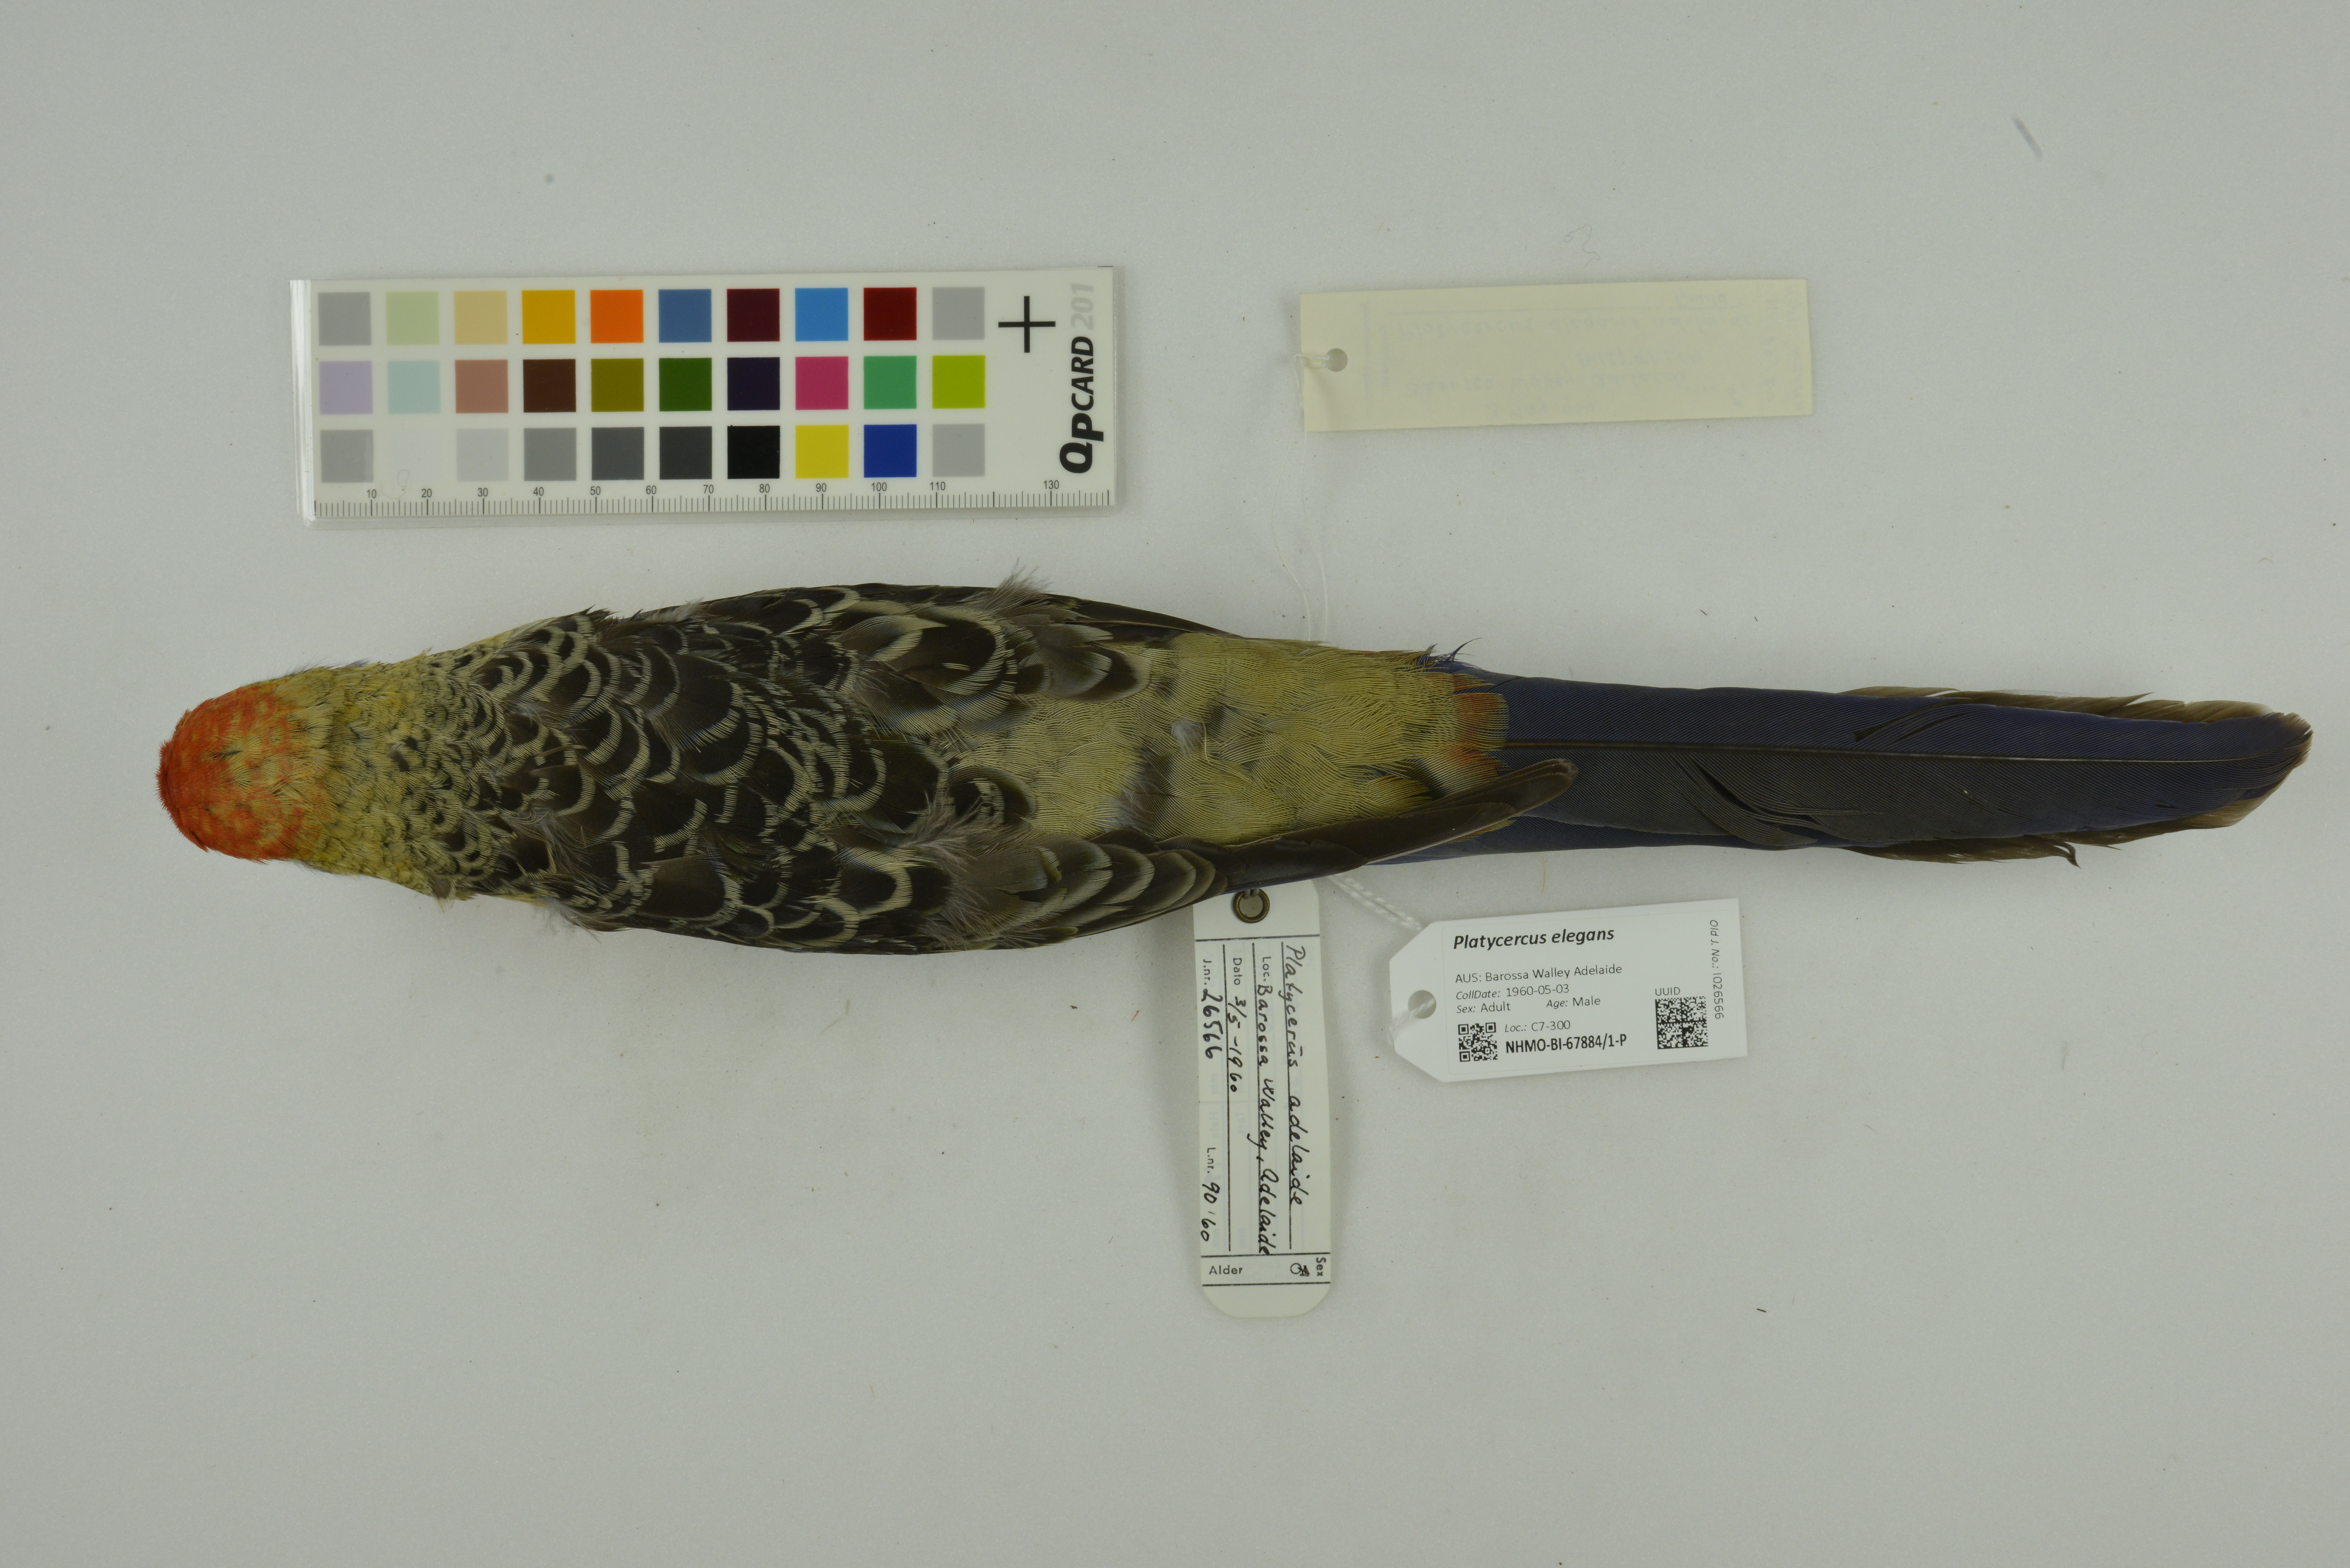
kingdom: Animalia
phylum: Chordata
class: Aves
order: Psittaciformes
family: Psittacidae
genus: Platycercus
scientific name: Platycercus elegans
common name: Crimson rosella
